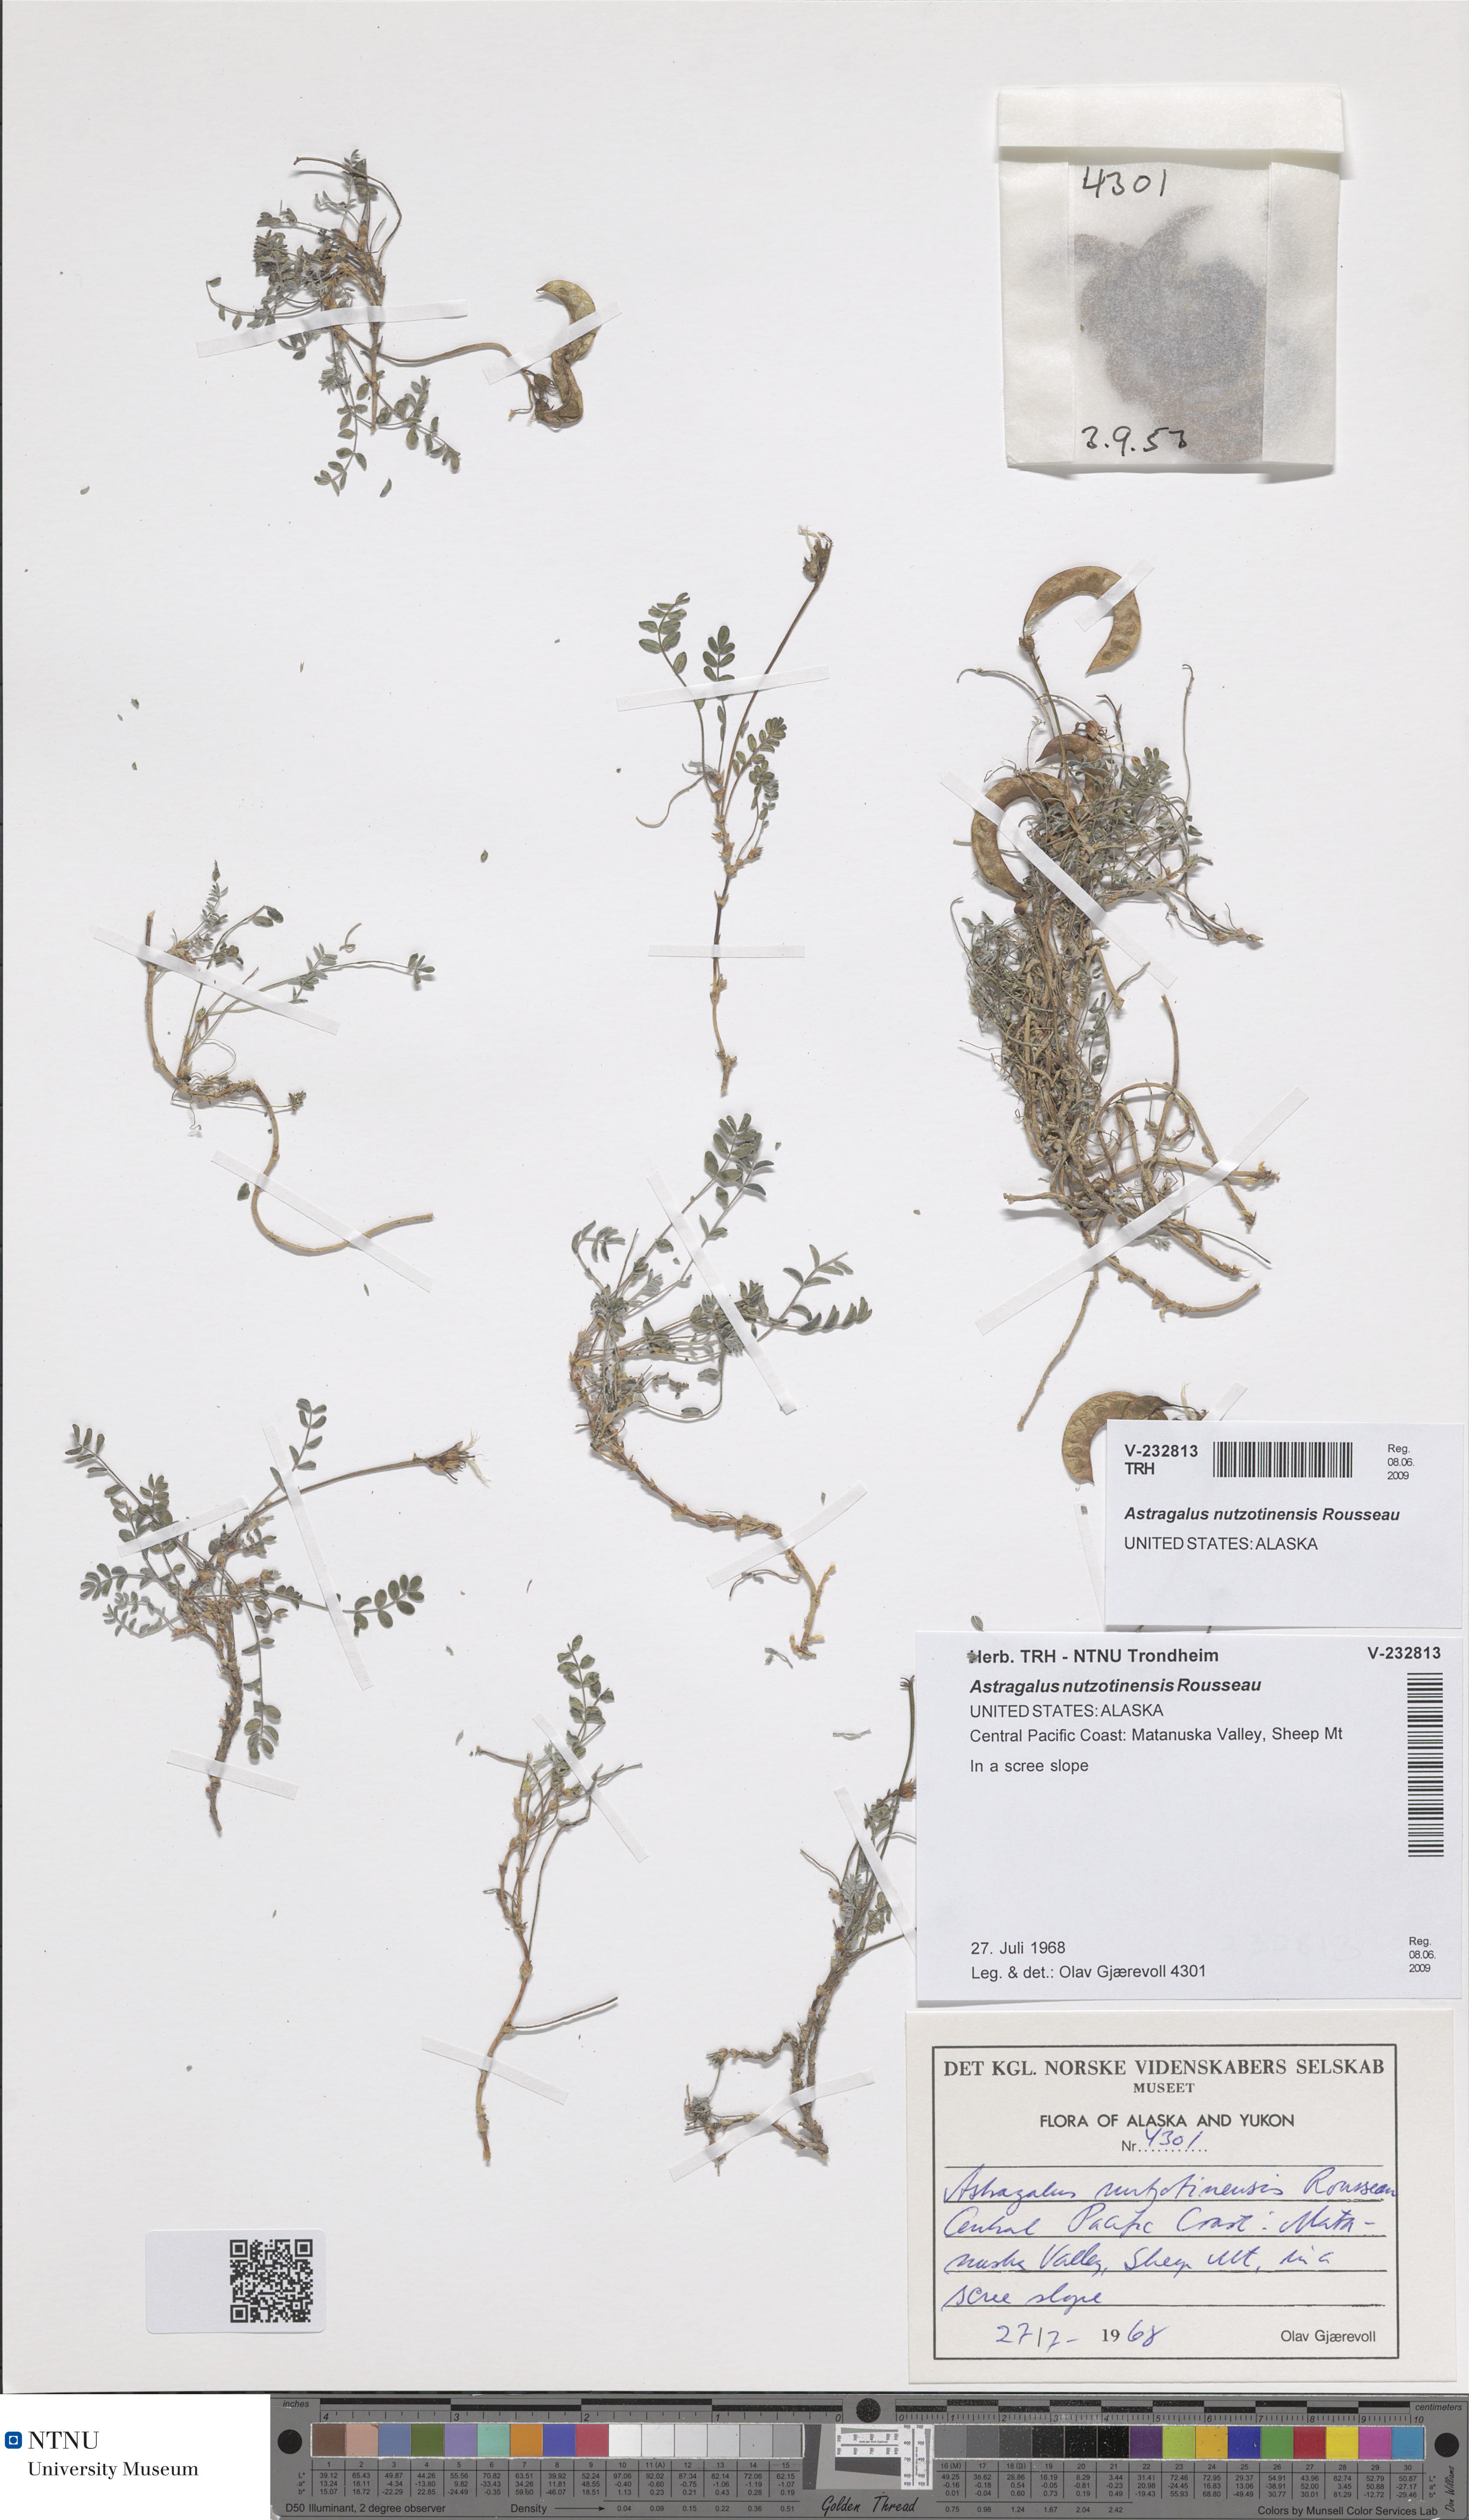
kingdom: Plantae
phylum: Tracheophyta
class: Magnoliopsida
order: Fabales
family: Fabaceae
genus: Astragalus
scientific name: Astragalus nutzotinensis
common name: Nutzotin milk-vetch
